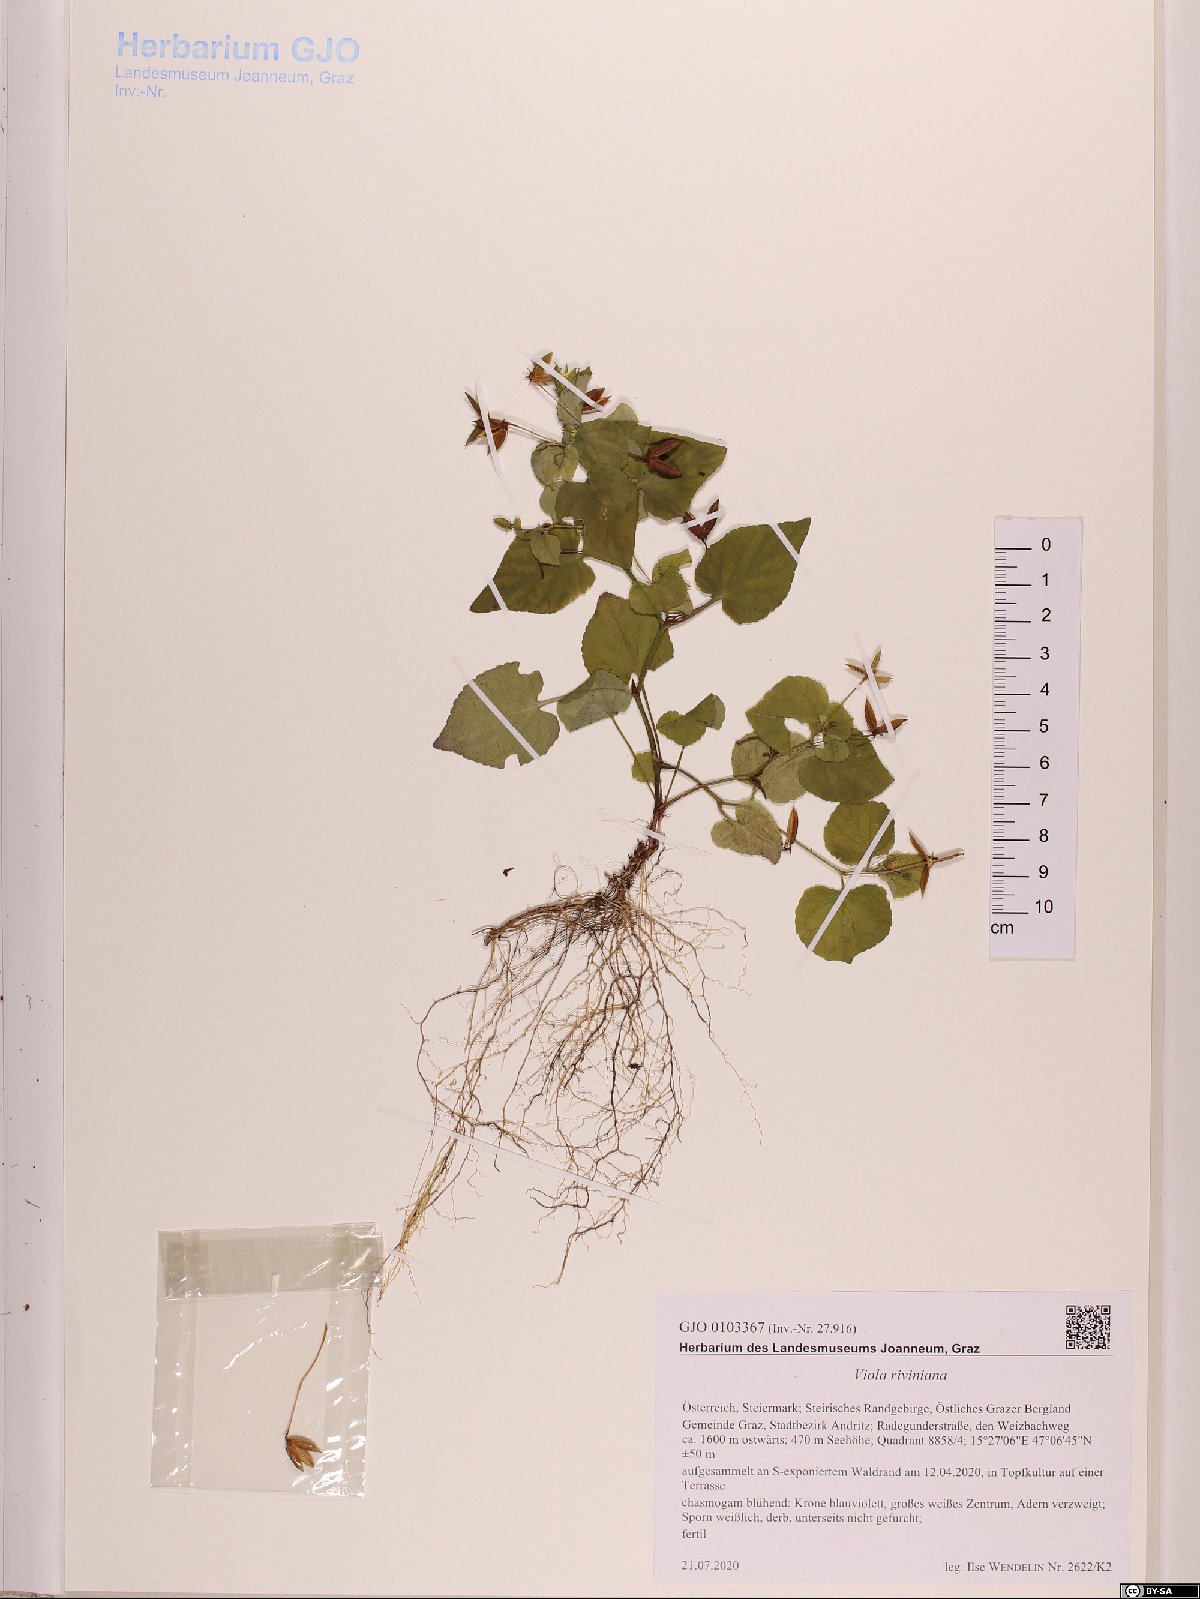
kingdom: Plantae
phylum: Tracheophyta
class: Magnoliopsida
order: Malpighiales
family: Violaceae
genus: Viola
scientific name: Viola riviniana
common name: Common dog-violet
